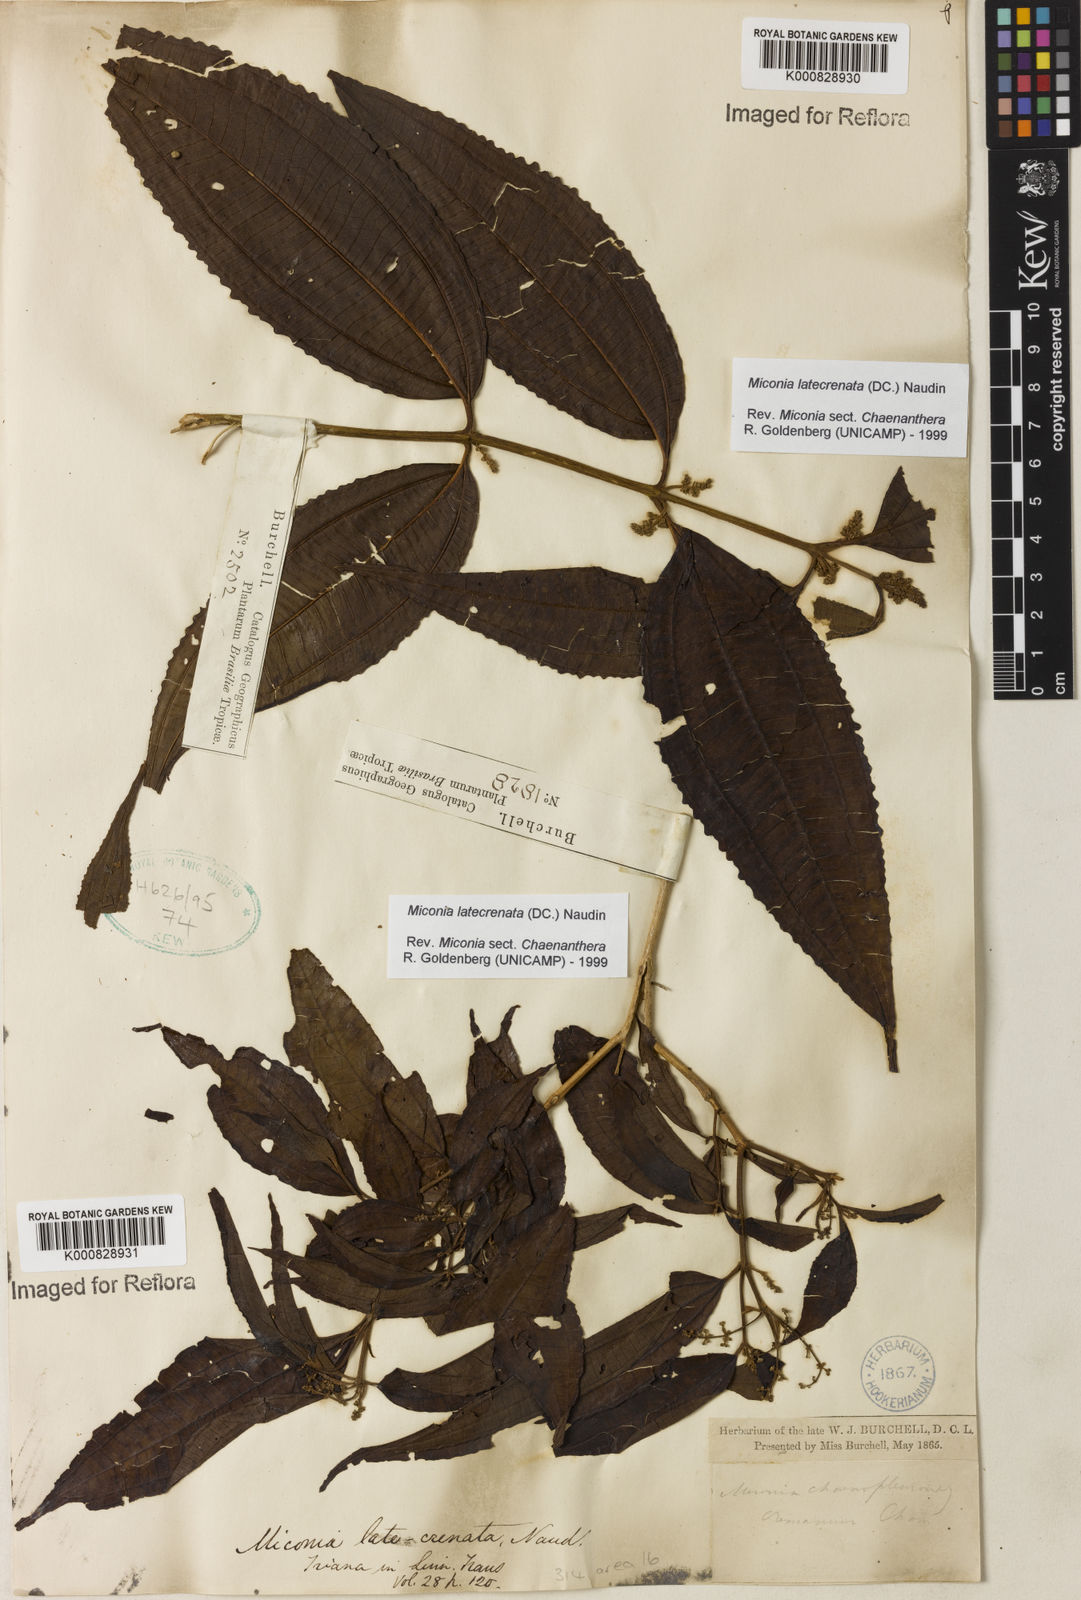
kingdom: Plantae
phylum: Tracheophyta
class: Magnoliopsida
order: Myrtales
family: Melastomataceae
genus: Miconia
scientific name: Miconia latecrenata
